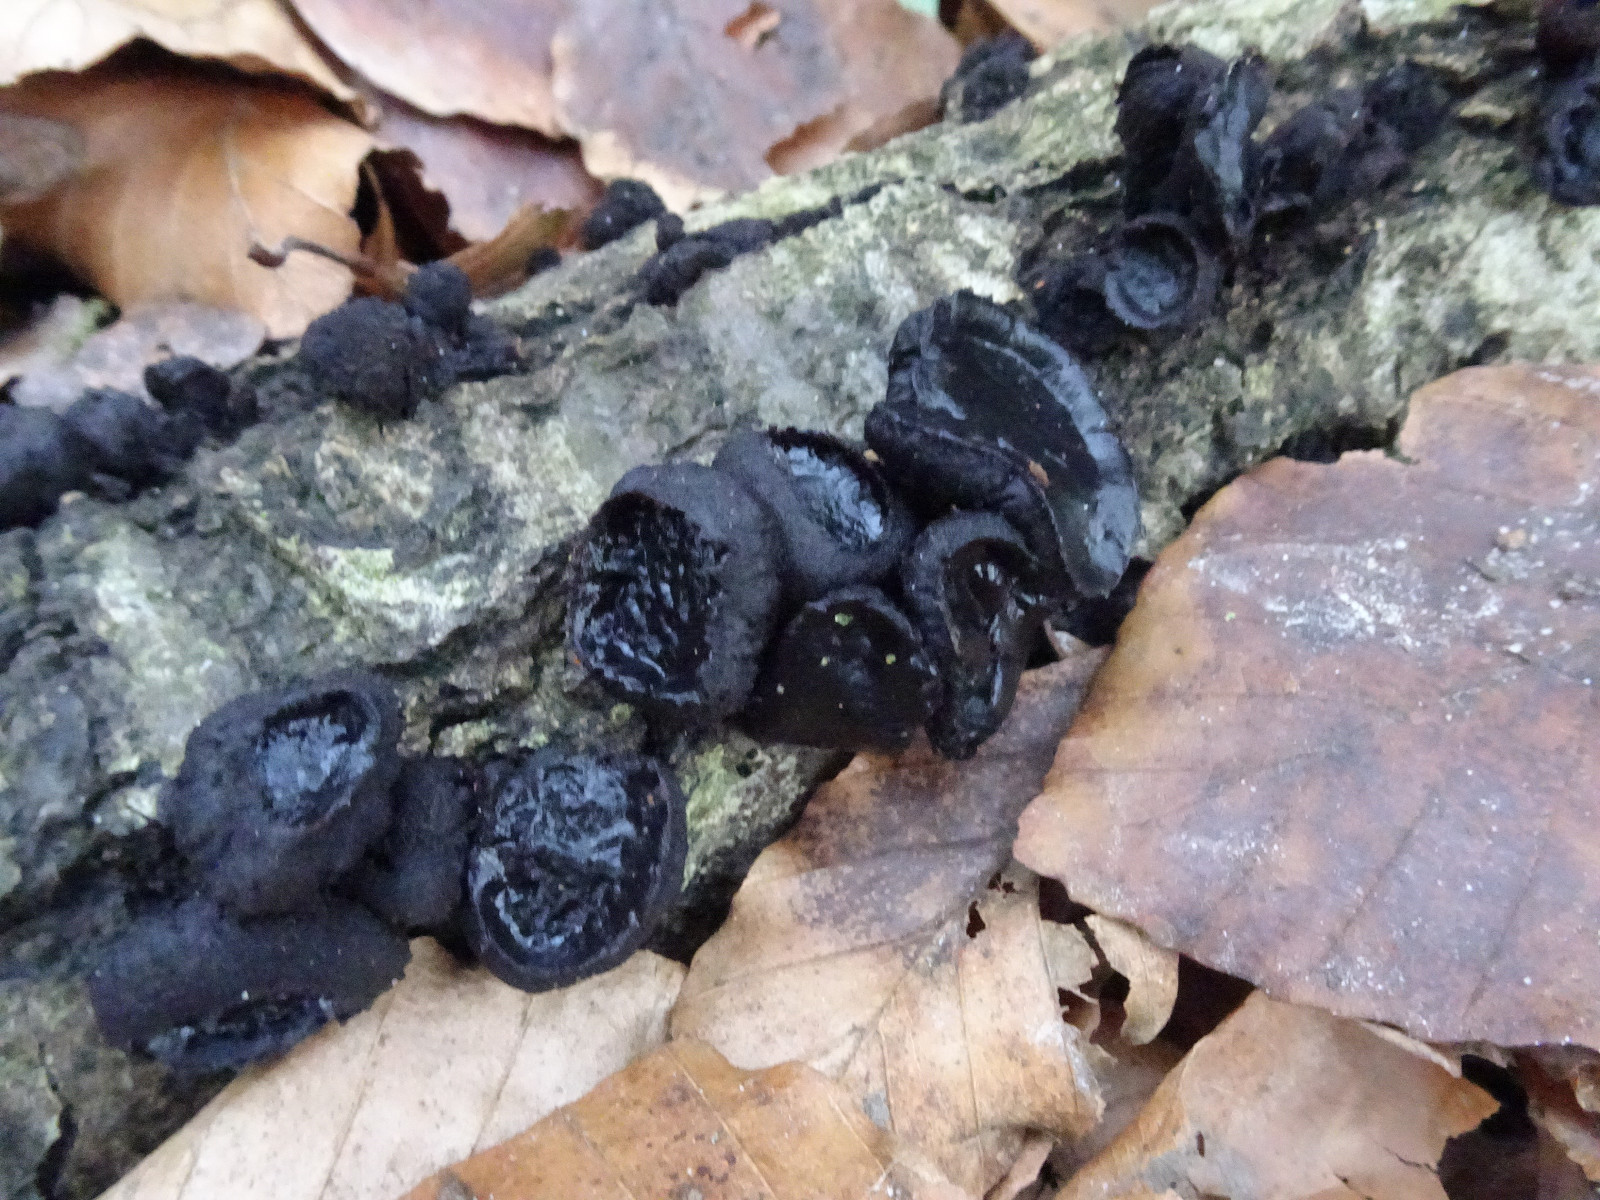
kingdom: Fungi
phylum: Ascomycota
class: Leotiomycetes
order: Phacidiales
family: Phacidiaceae
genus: Bulgaria
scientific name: Bulgaria inquinans
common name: afsmittende topsvamp
